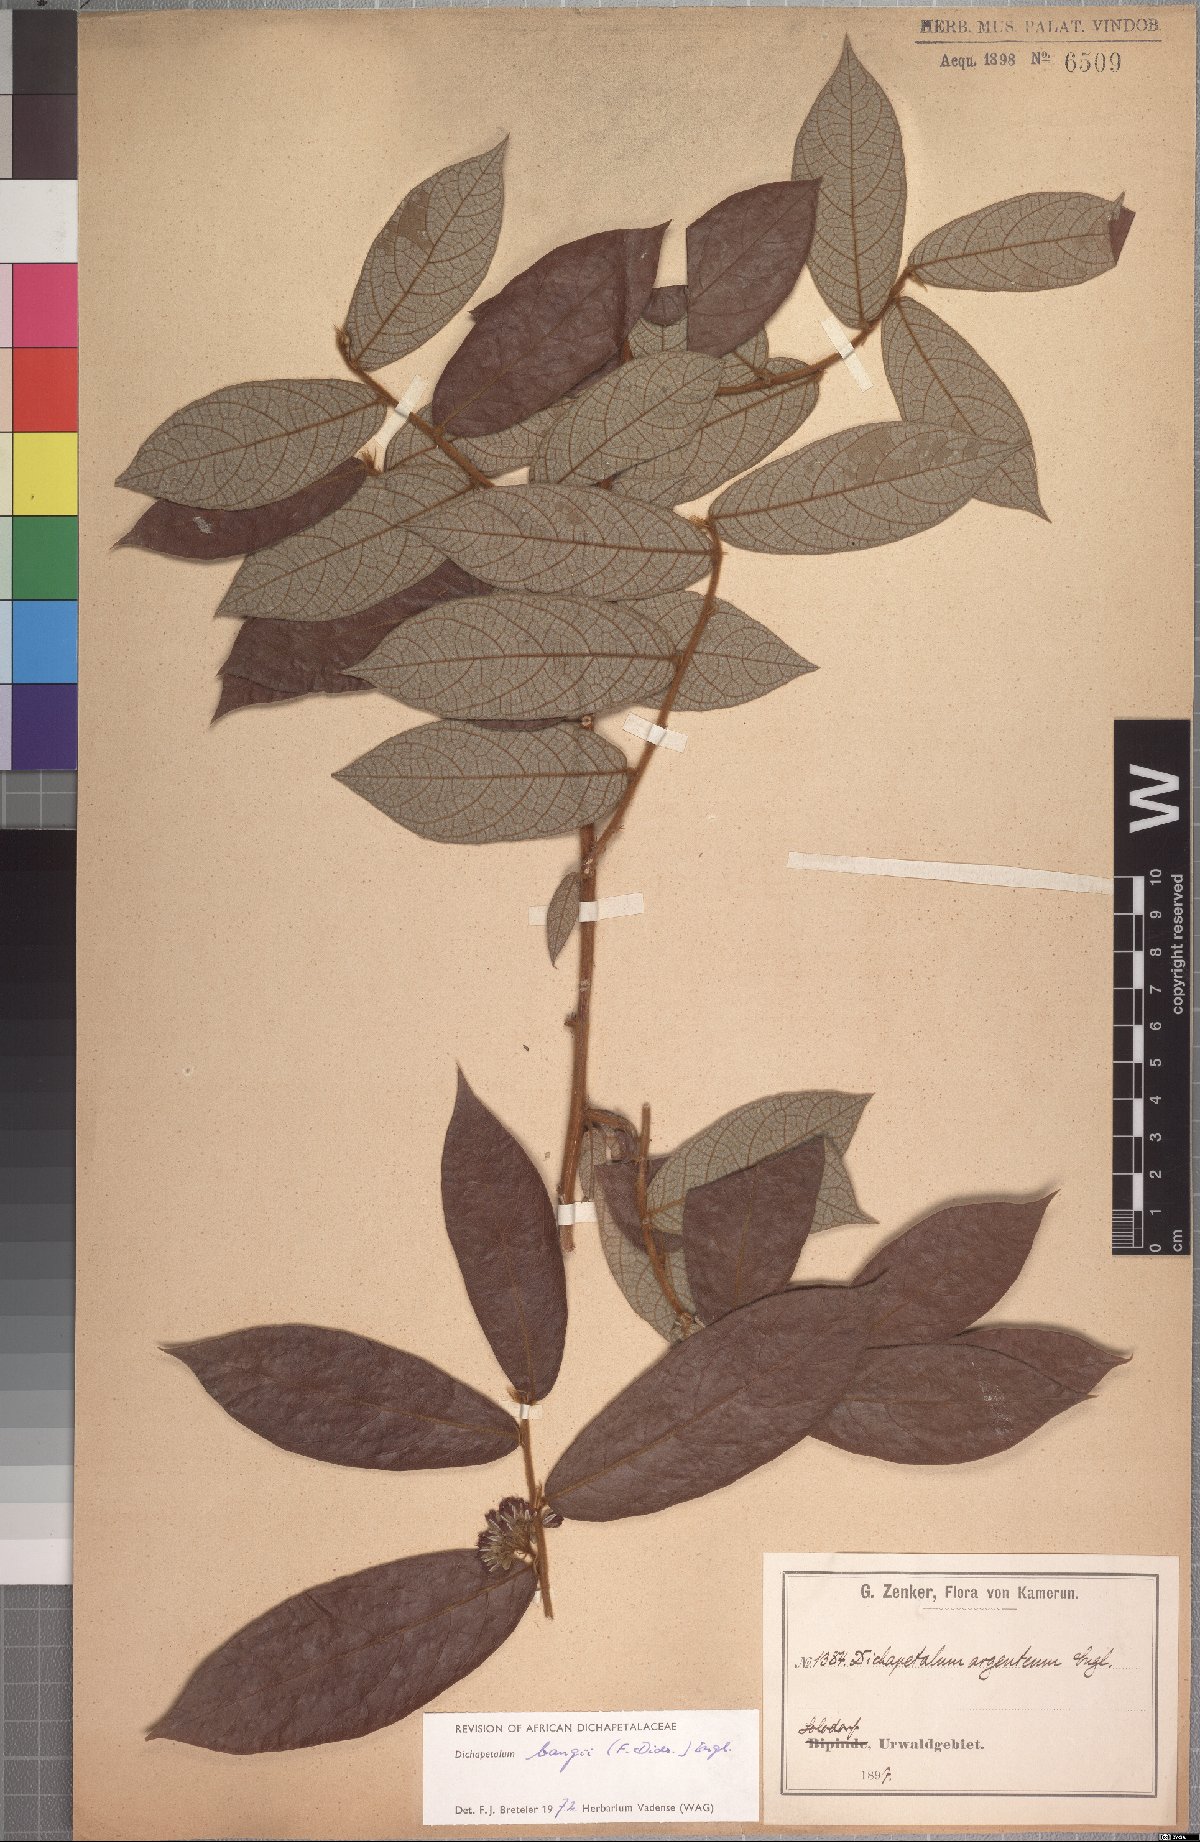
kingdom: Plantae
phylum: Tracheophyta
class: Magnoliopsida
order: Malpighiales
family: Dichapetalaceae
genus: Dichapetalum
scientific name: Dichapetalum bangii
